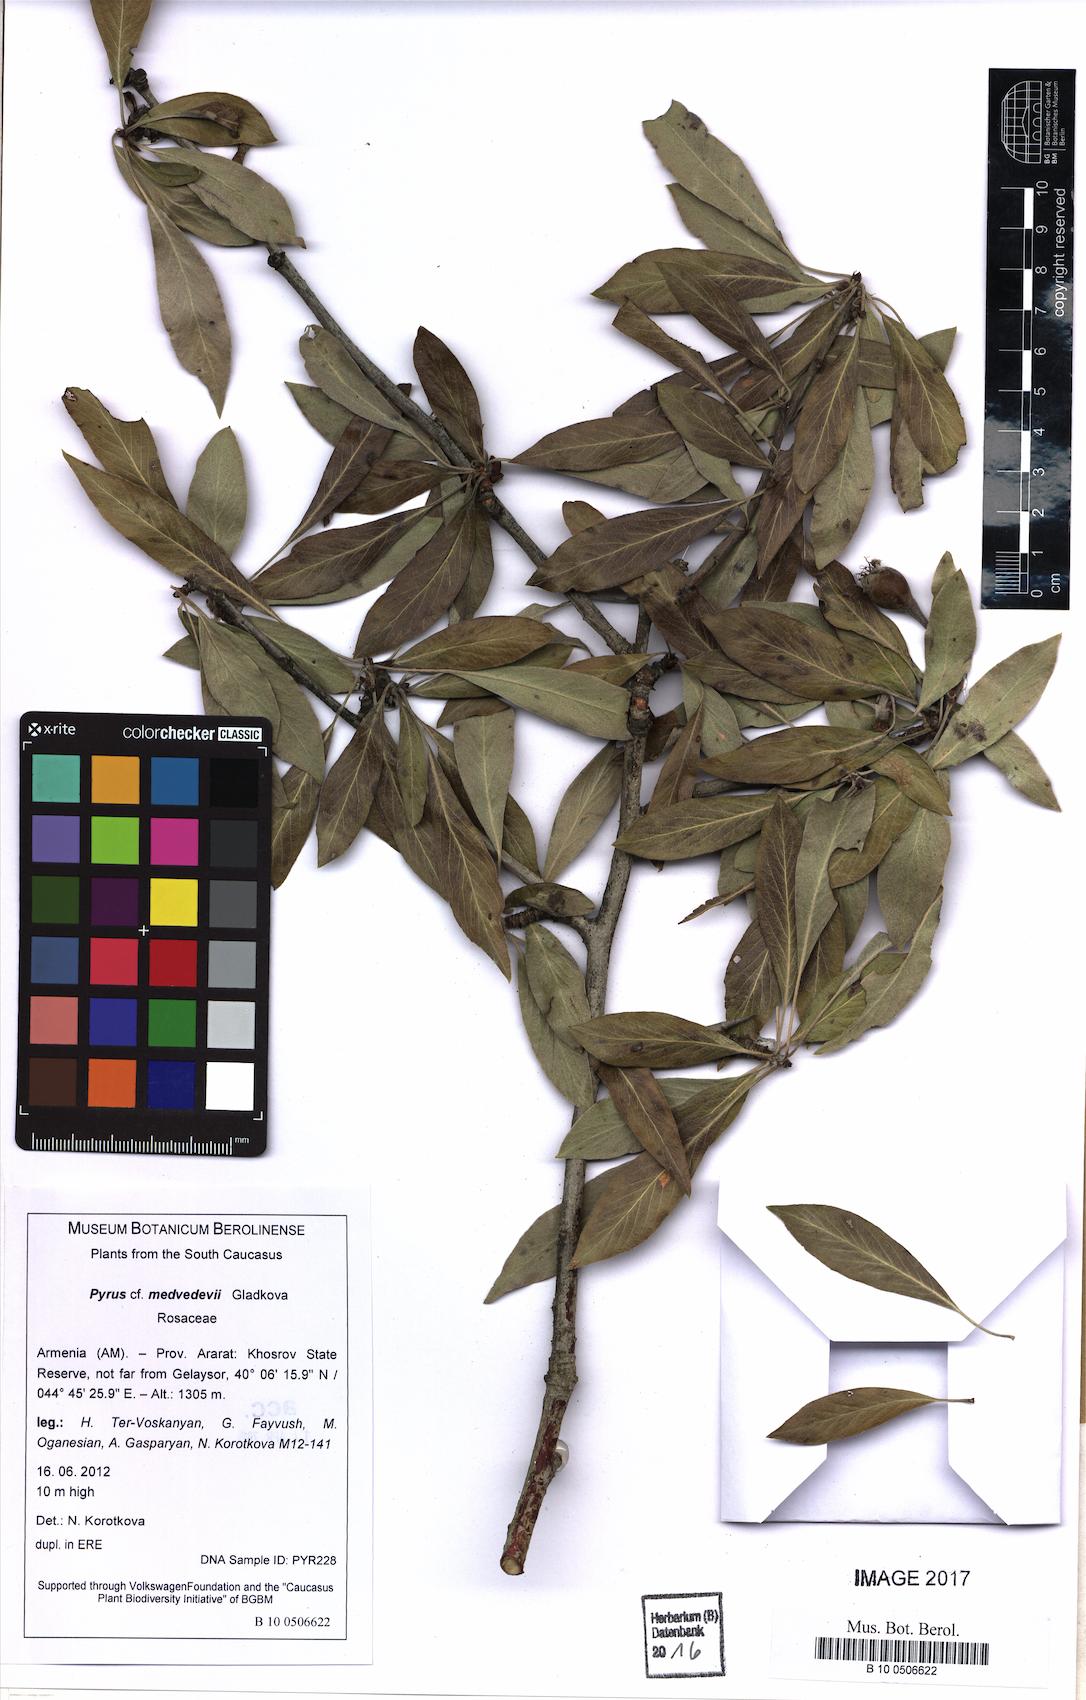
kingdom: Plantae
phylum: Tracheophyta
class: Magnoliopsida
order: Rosales
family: Rosaceae
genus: Pyrus
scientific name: Pyrus medvedevii
